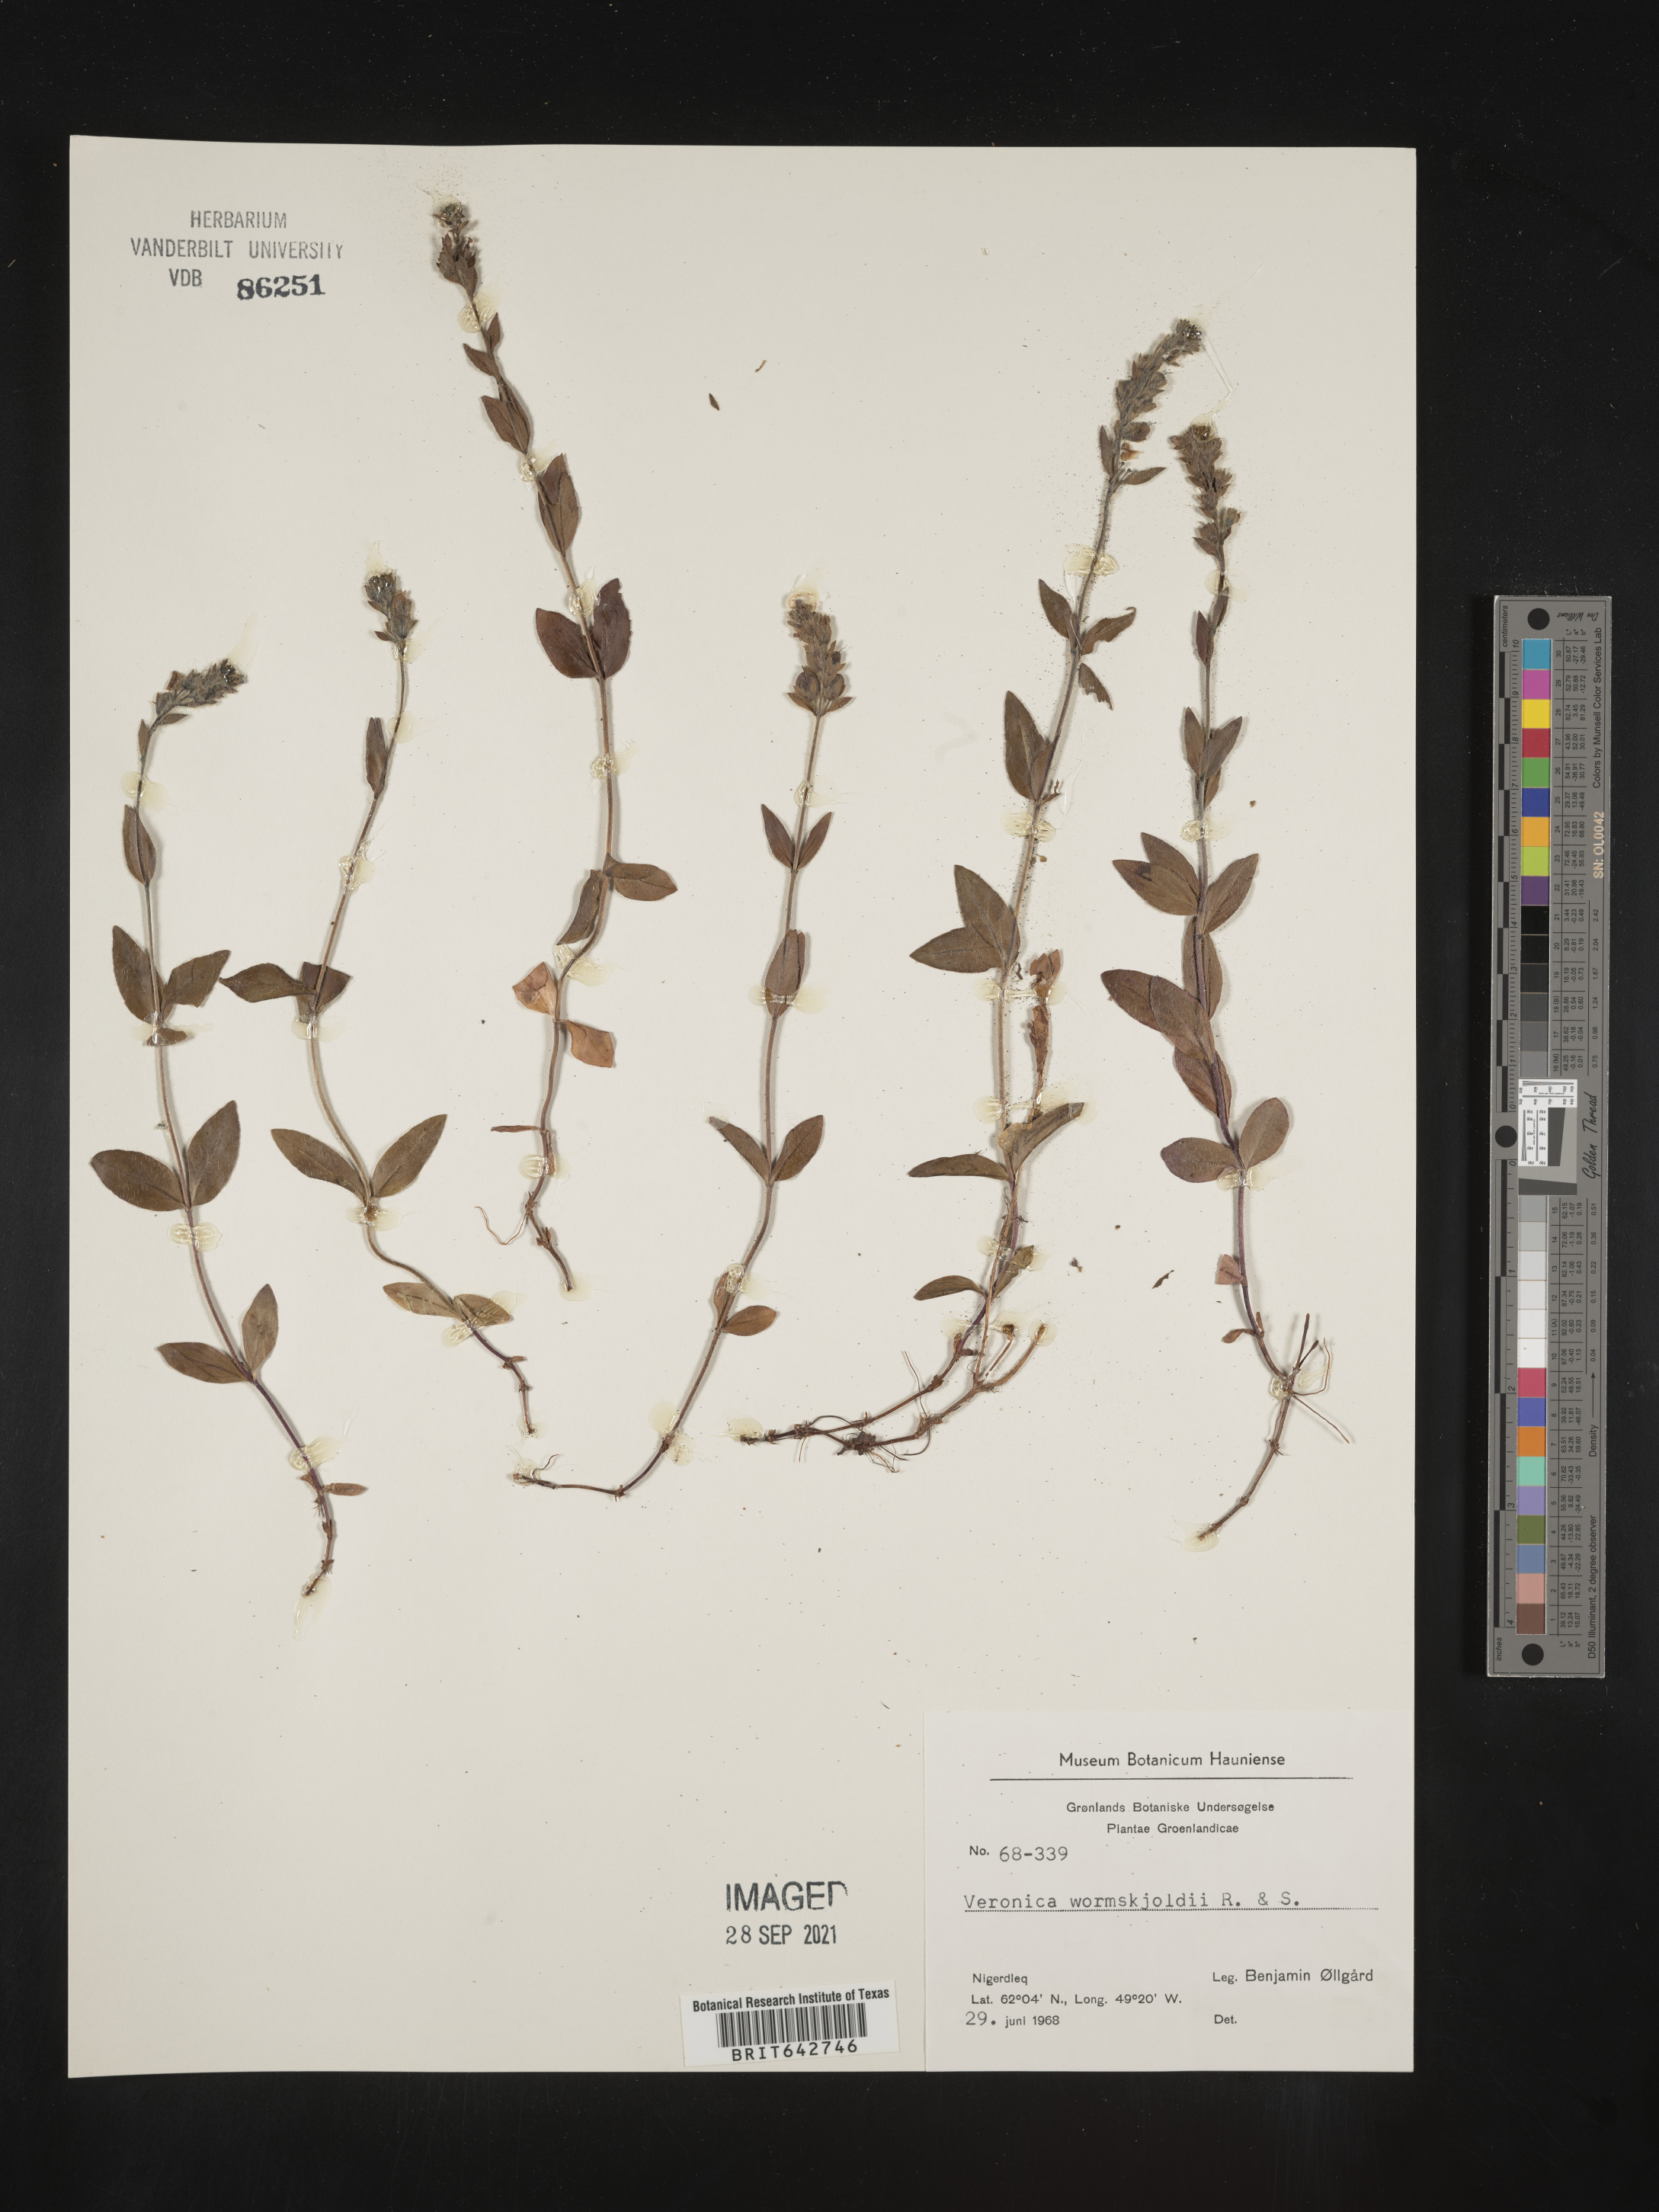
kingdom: Plantae
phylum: Tracheophyta
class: Magnoliopsida
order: Lamiales
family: Plantaginaceae
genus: Veronica
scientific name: Veronica
